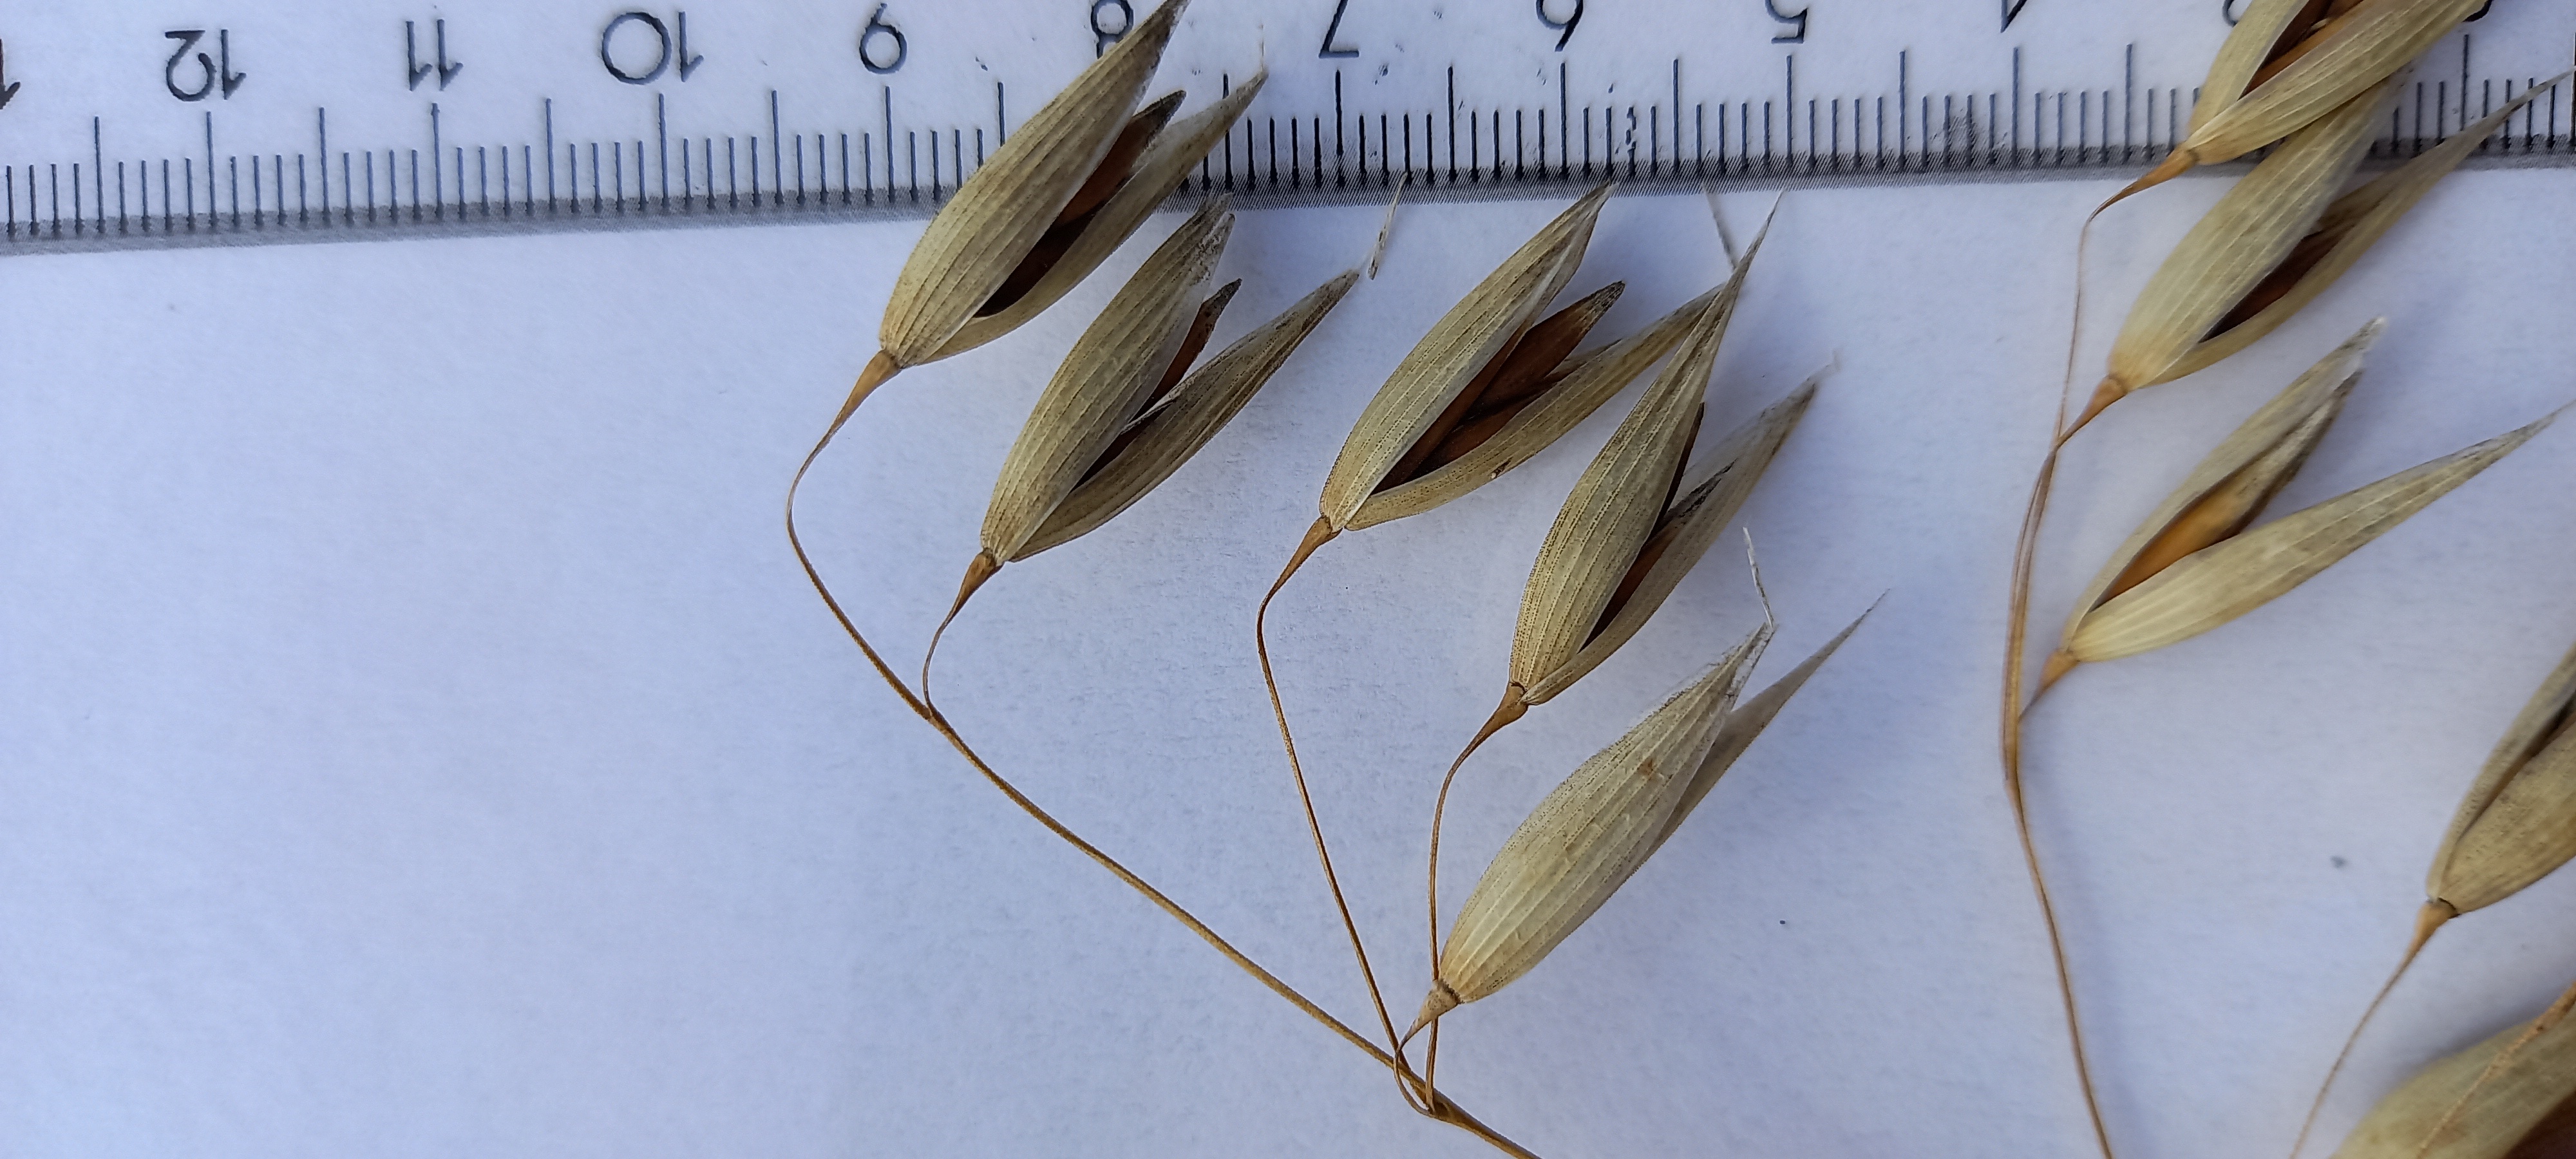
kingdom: Plantae
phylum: Tracheophyta
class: Liliopsida
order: Poales
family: Poaceae
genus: Avena
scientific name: Avena sativa
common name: Oat
